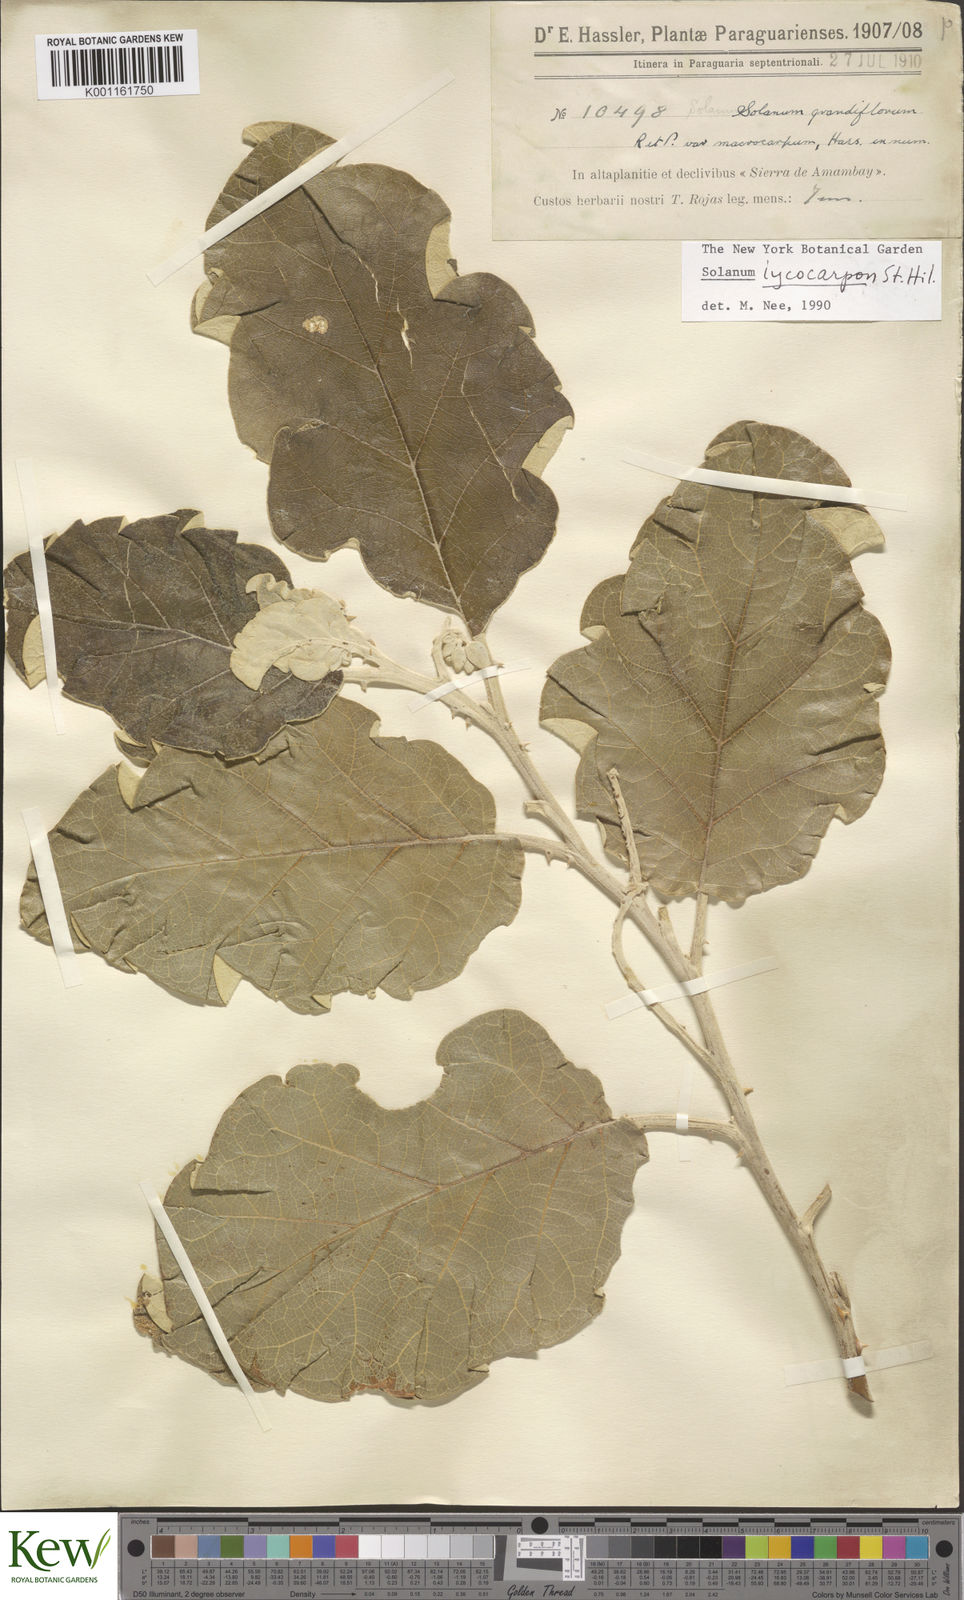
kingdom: Plantae
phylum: Tracheophyta
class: Magnoliopsida
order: Solanales
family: Solanaceae
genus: Solanum
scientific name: Solanum lycocarpum
